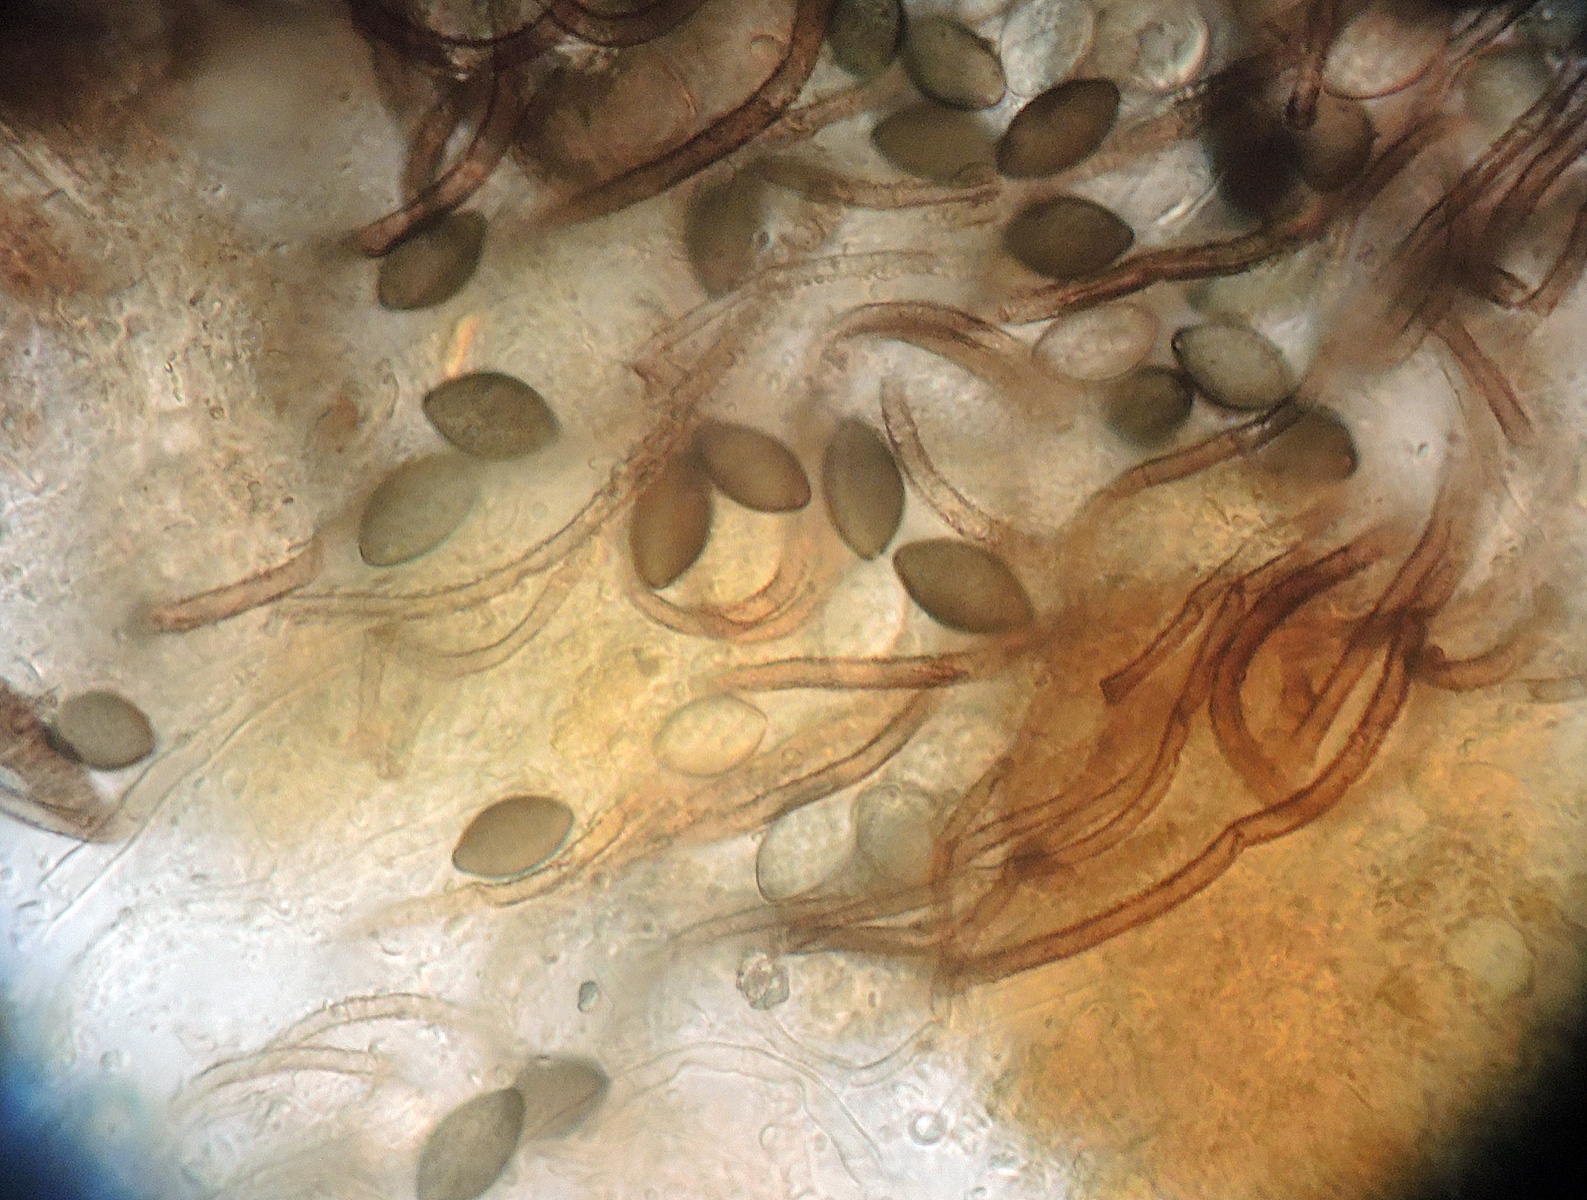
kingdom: Fungi
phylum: Ascomycota
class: Sordariomycetes
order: Sordariales
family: Chaetomiaceae
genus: Subramaniula
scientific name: Subramaniula fusispora
